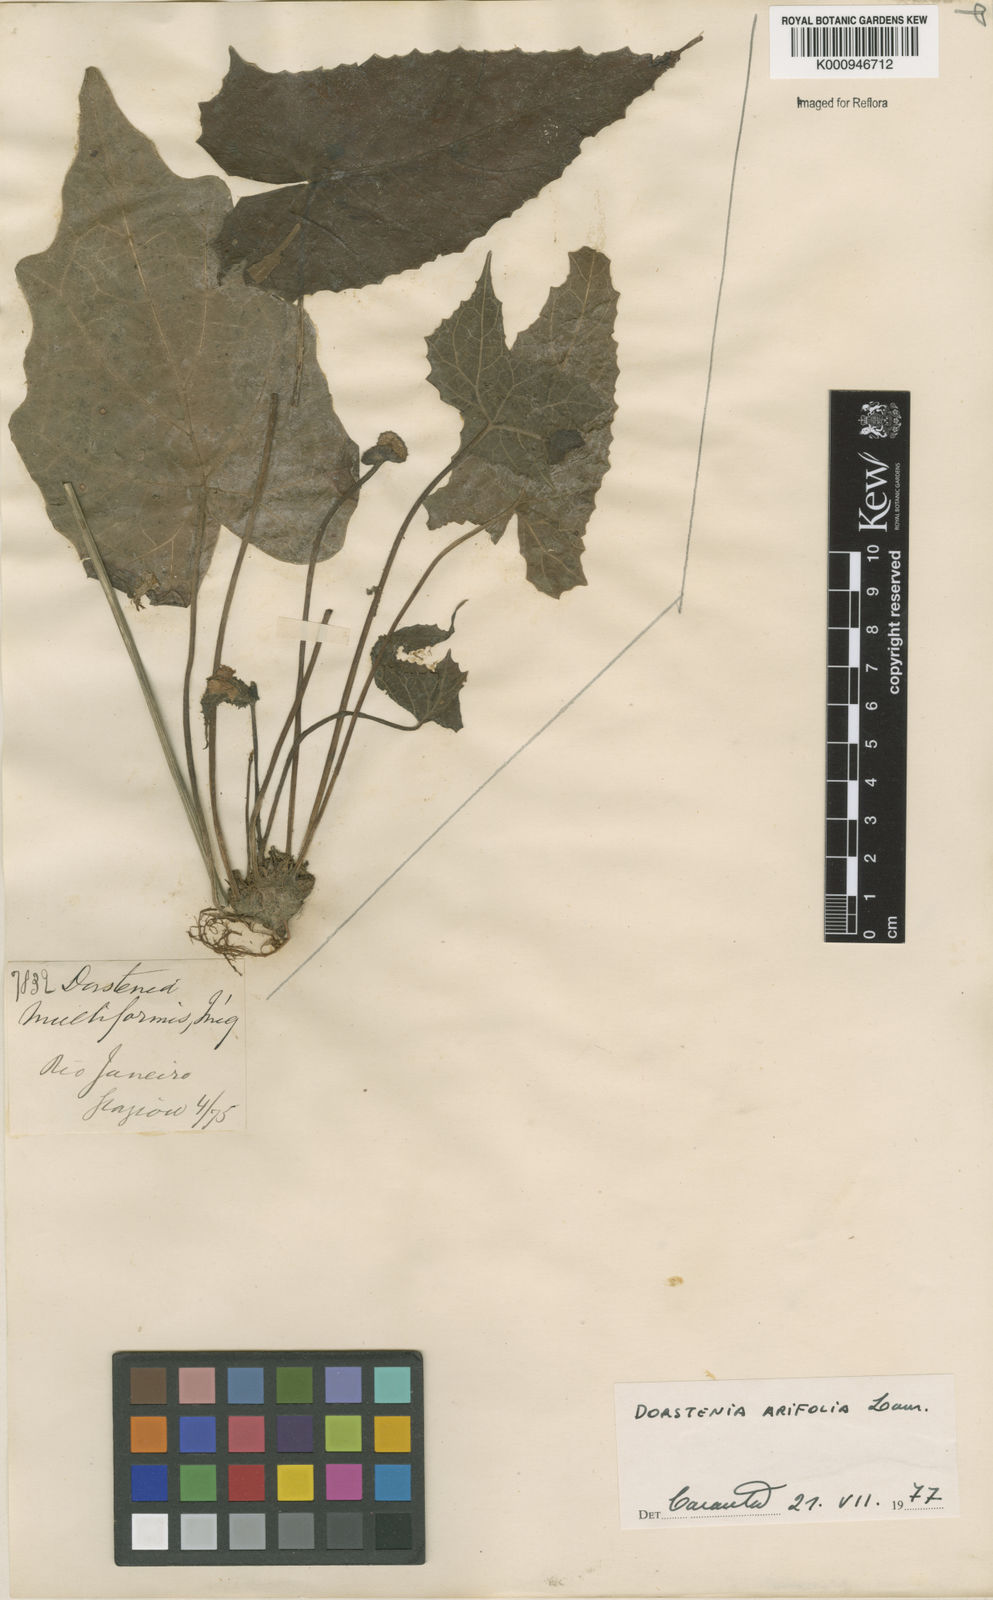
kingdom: Plantae
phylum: Tracheophyta
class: Magnoliopsida
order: Rosales
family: Moraceae
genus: Dorstenia
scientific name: Dorstenia arifolia
